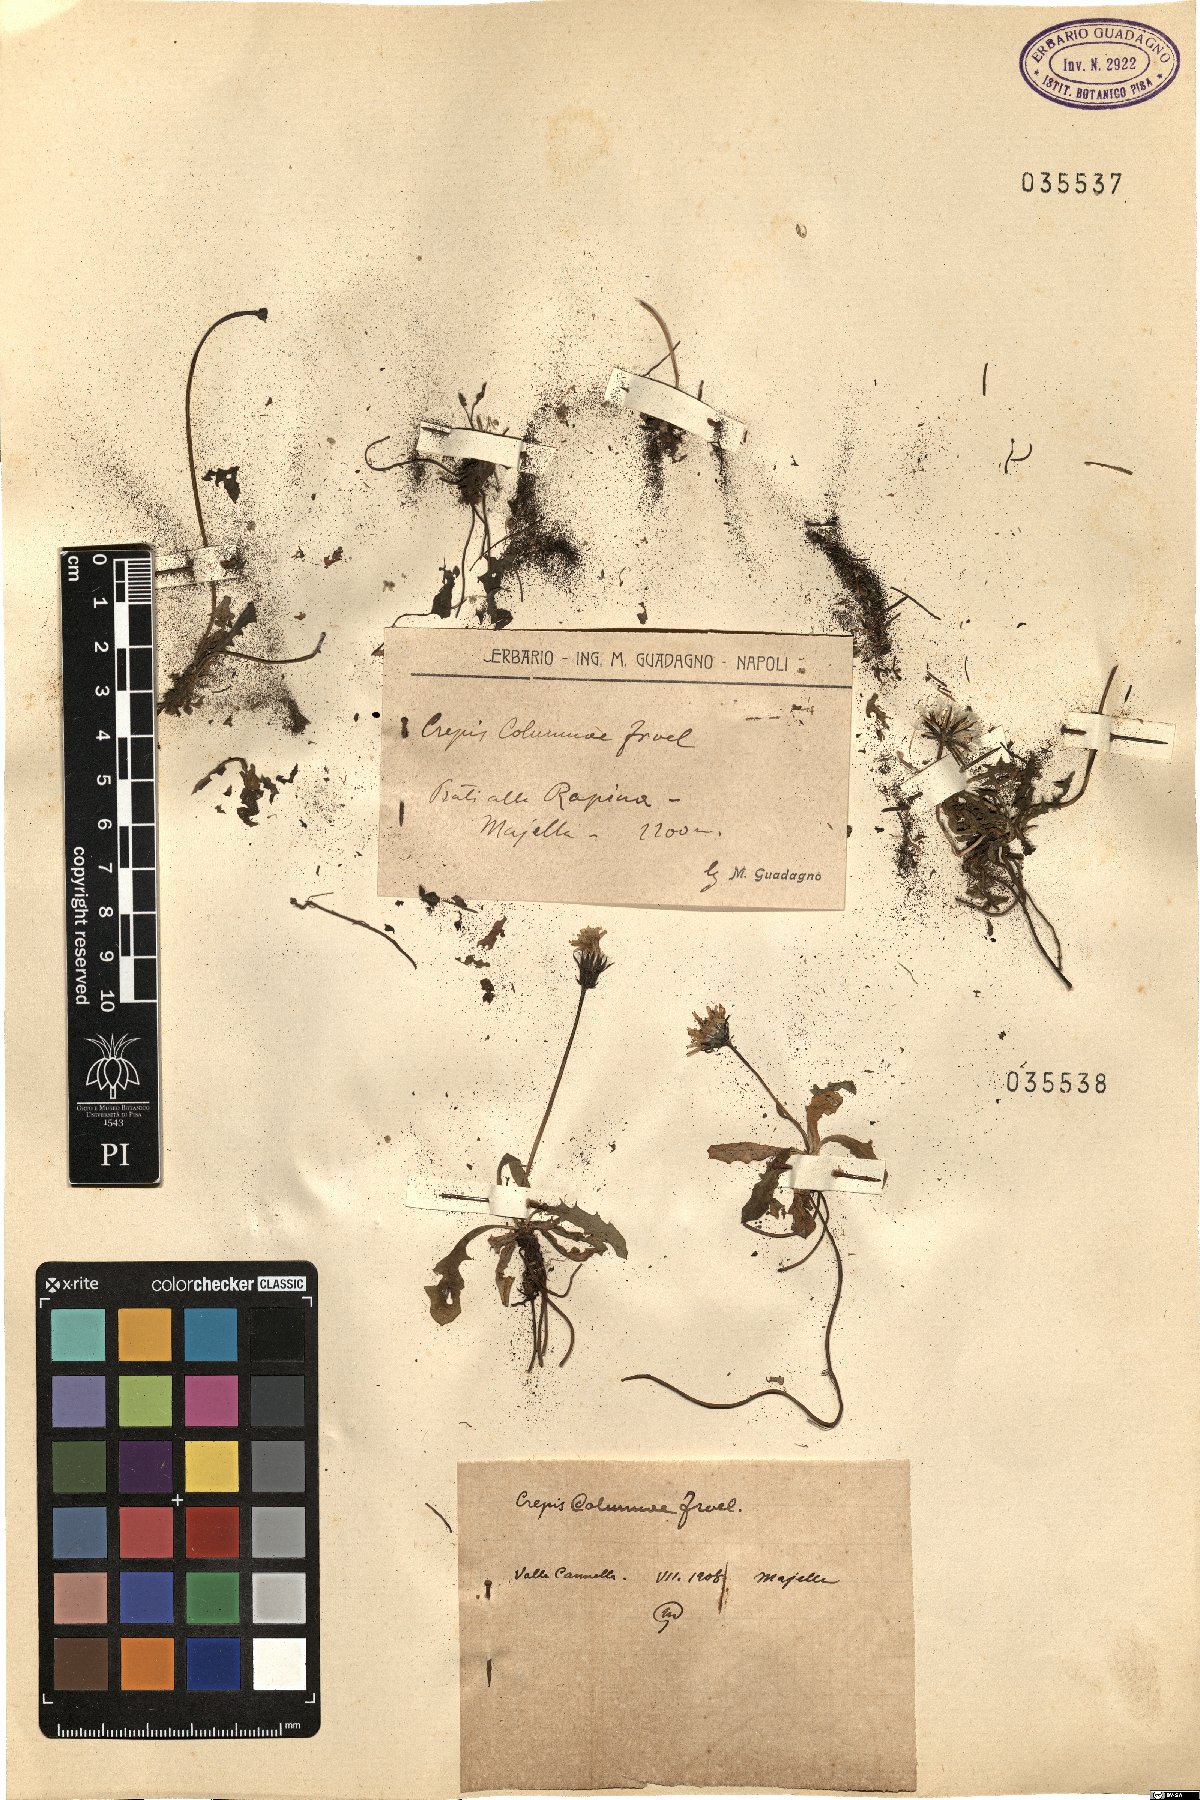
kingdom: Plantae
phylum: Tracheophyta
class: Magnoliopsida
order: Asterales
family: Asteraceae
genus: Crepis
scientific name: Crepis aurea
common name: Golden hawk's-beard
